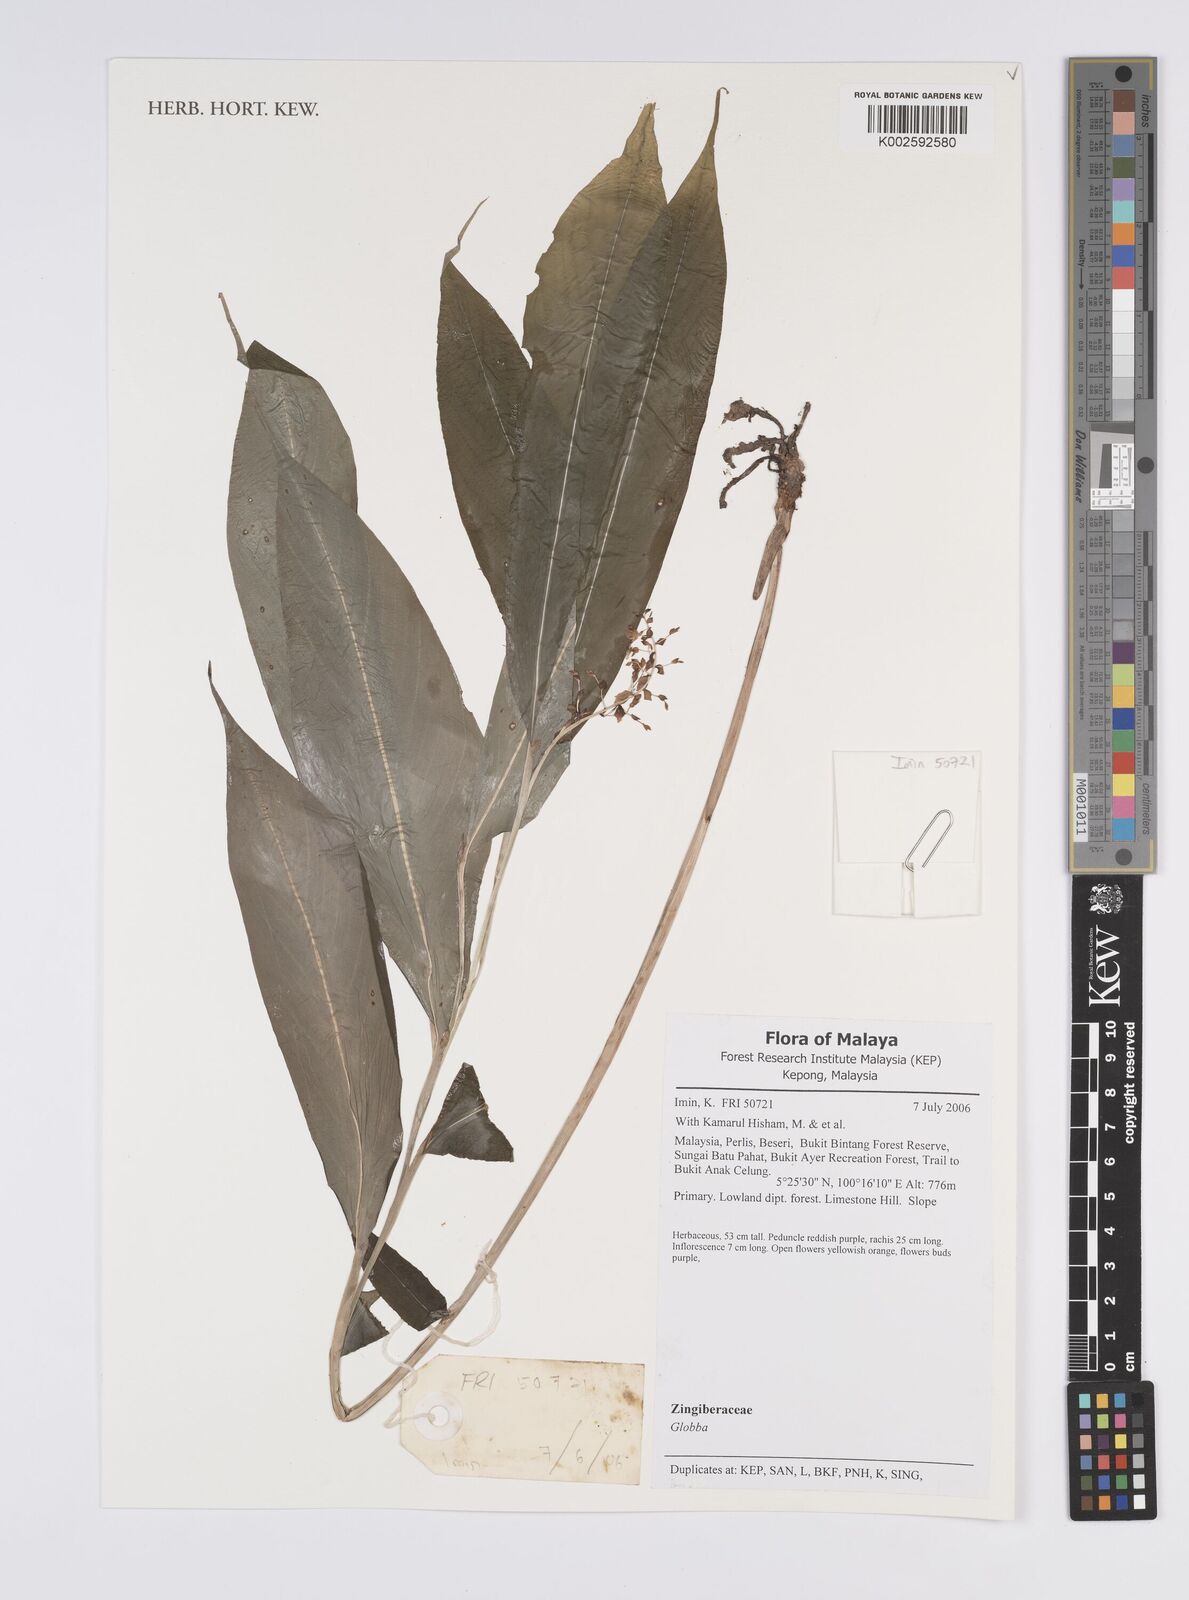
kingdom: Plantae
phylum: Tracheophyta
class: Liliopsida
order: Zingiberales
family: Zingiberaceae
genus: Globba
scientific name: Globba
